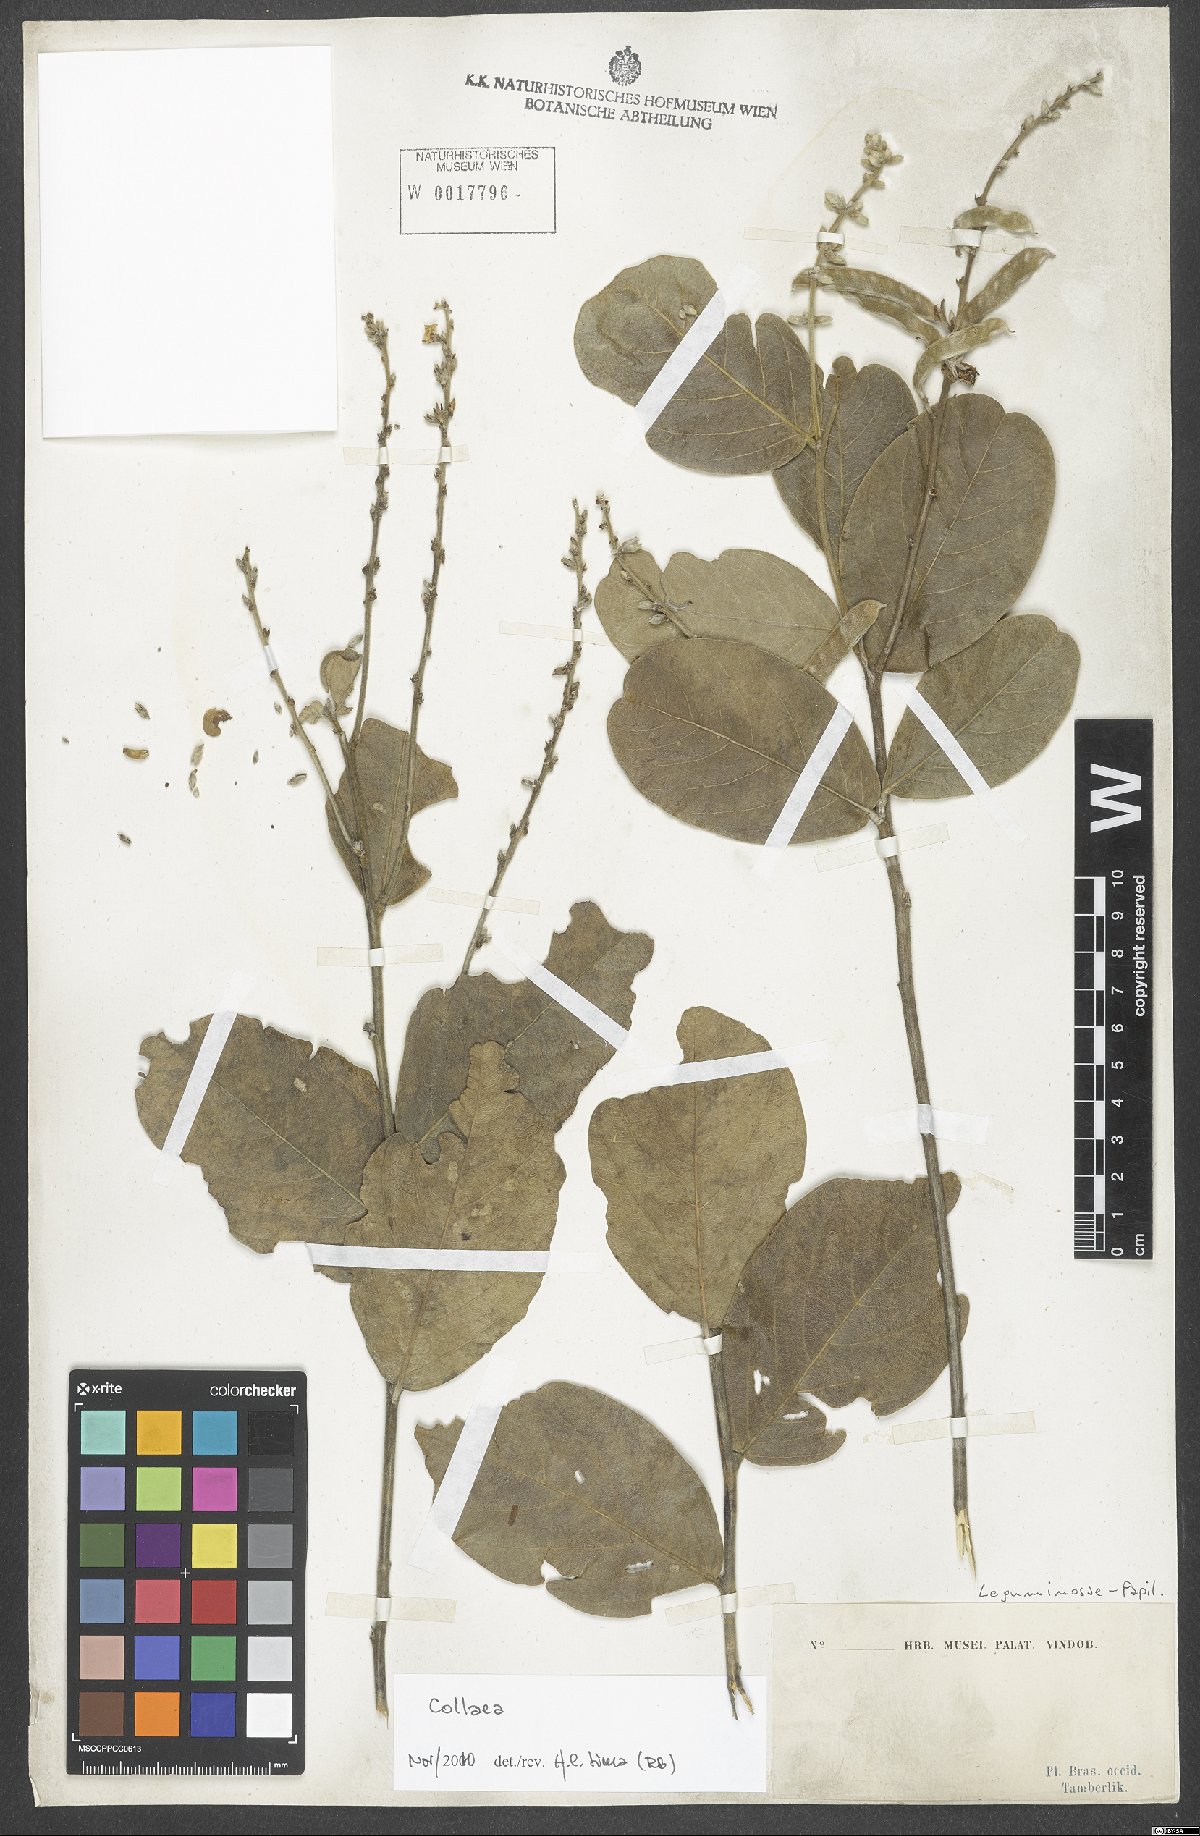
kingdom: Plantae
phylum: Tracheophyta
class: Magnoliopsida
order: Fabales
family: Fabaceae
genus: Collaea
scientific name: Collaea
